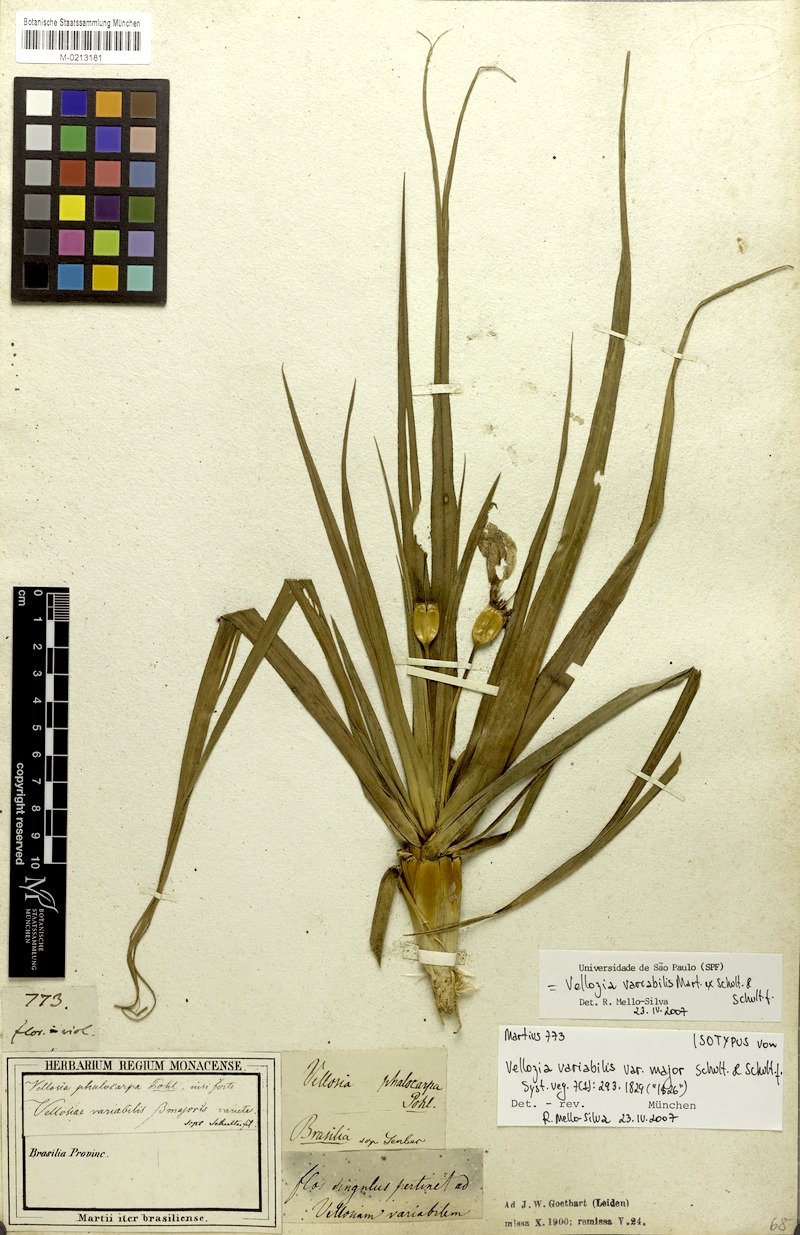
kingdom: Plantae
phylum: Tracheophyta
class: Liliopsida
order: Pandanales
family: Velloziaceae
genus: Vellozia
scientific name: Vellozia variabilis
